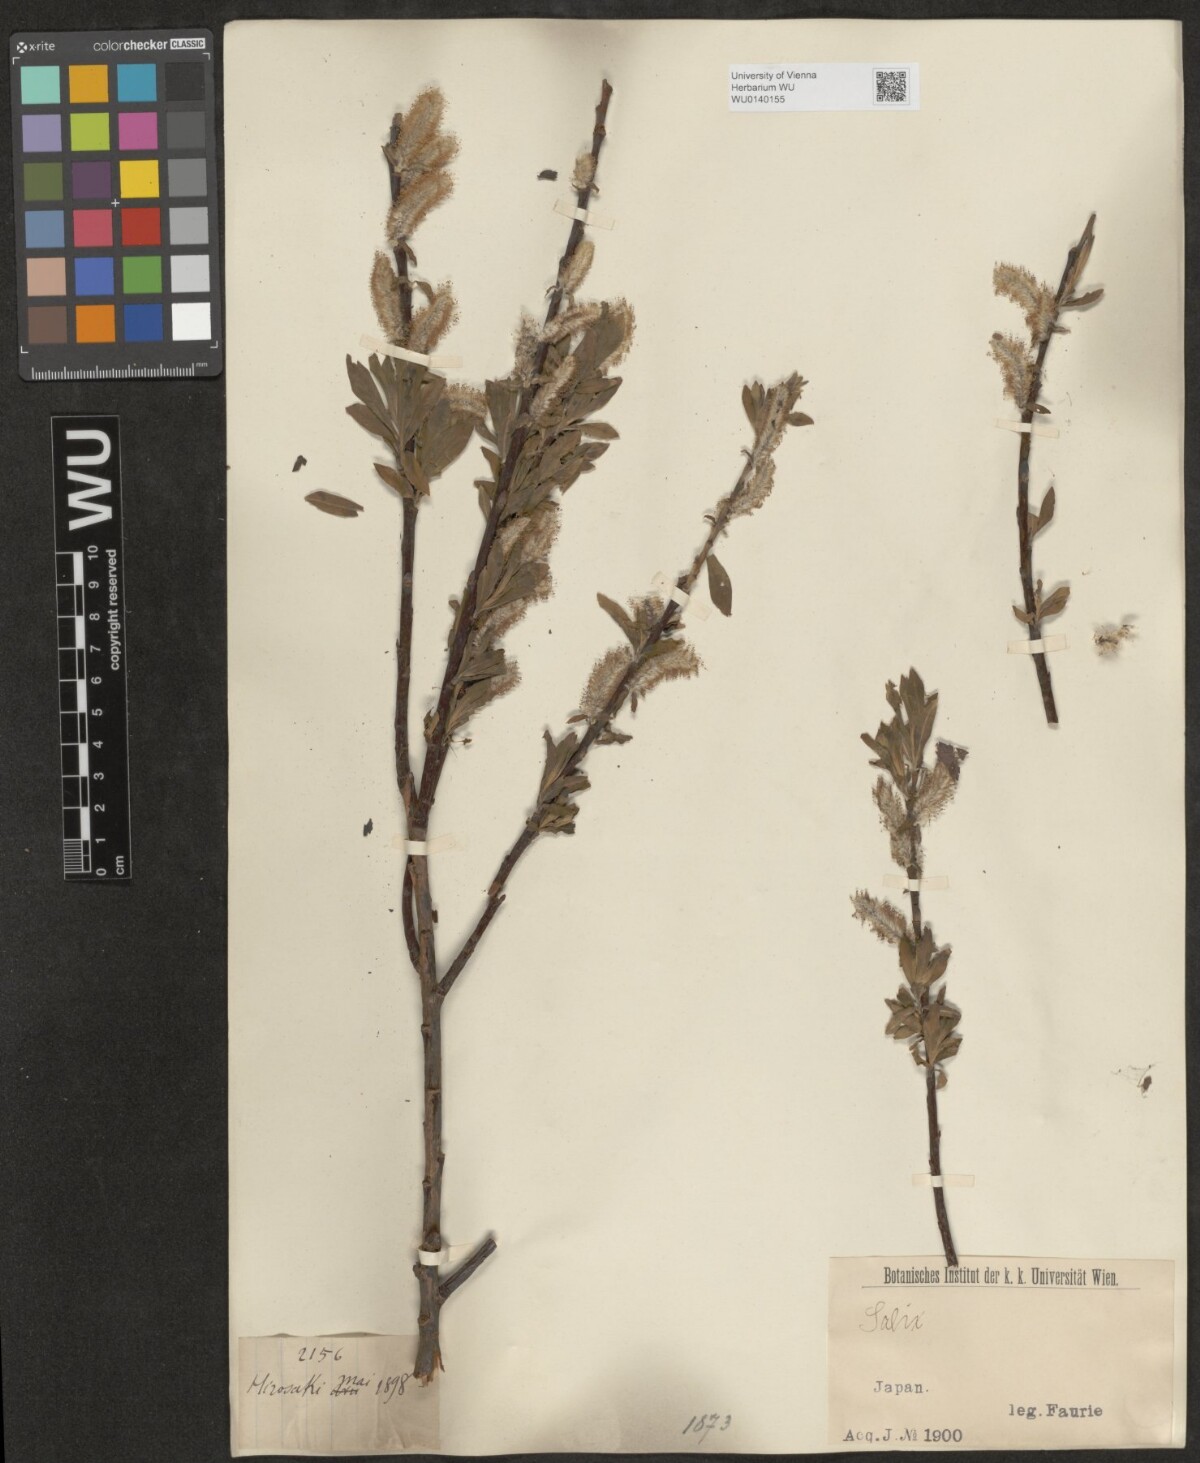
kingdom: Plantae
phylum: Tracheophyta
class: Magnoliopsida
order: Malpighiales
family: Salicaceae
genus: Salix
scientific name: Salix
